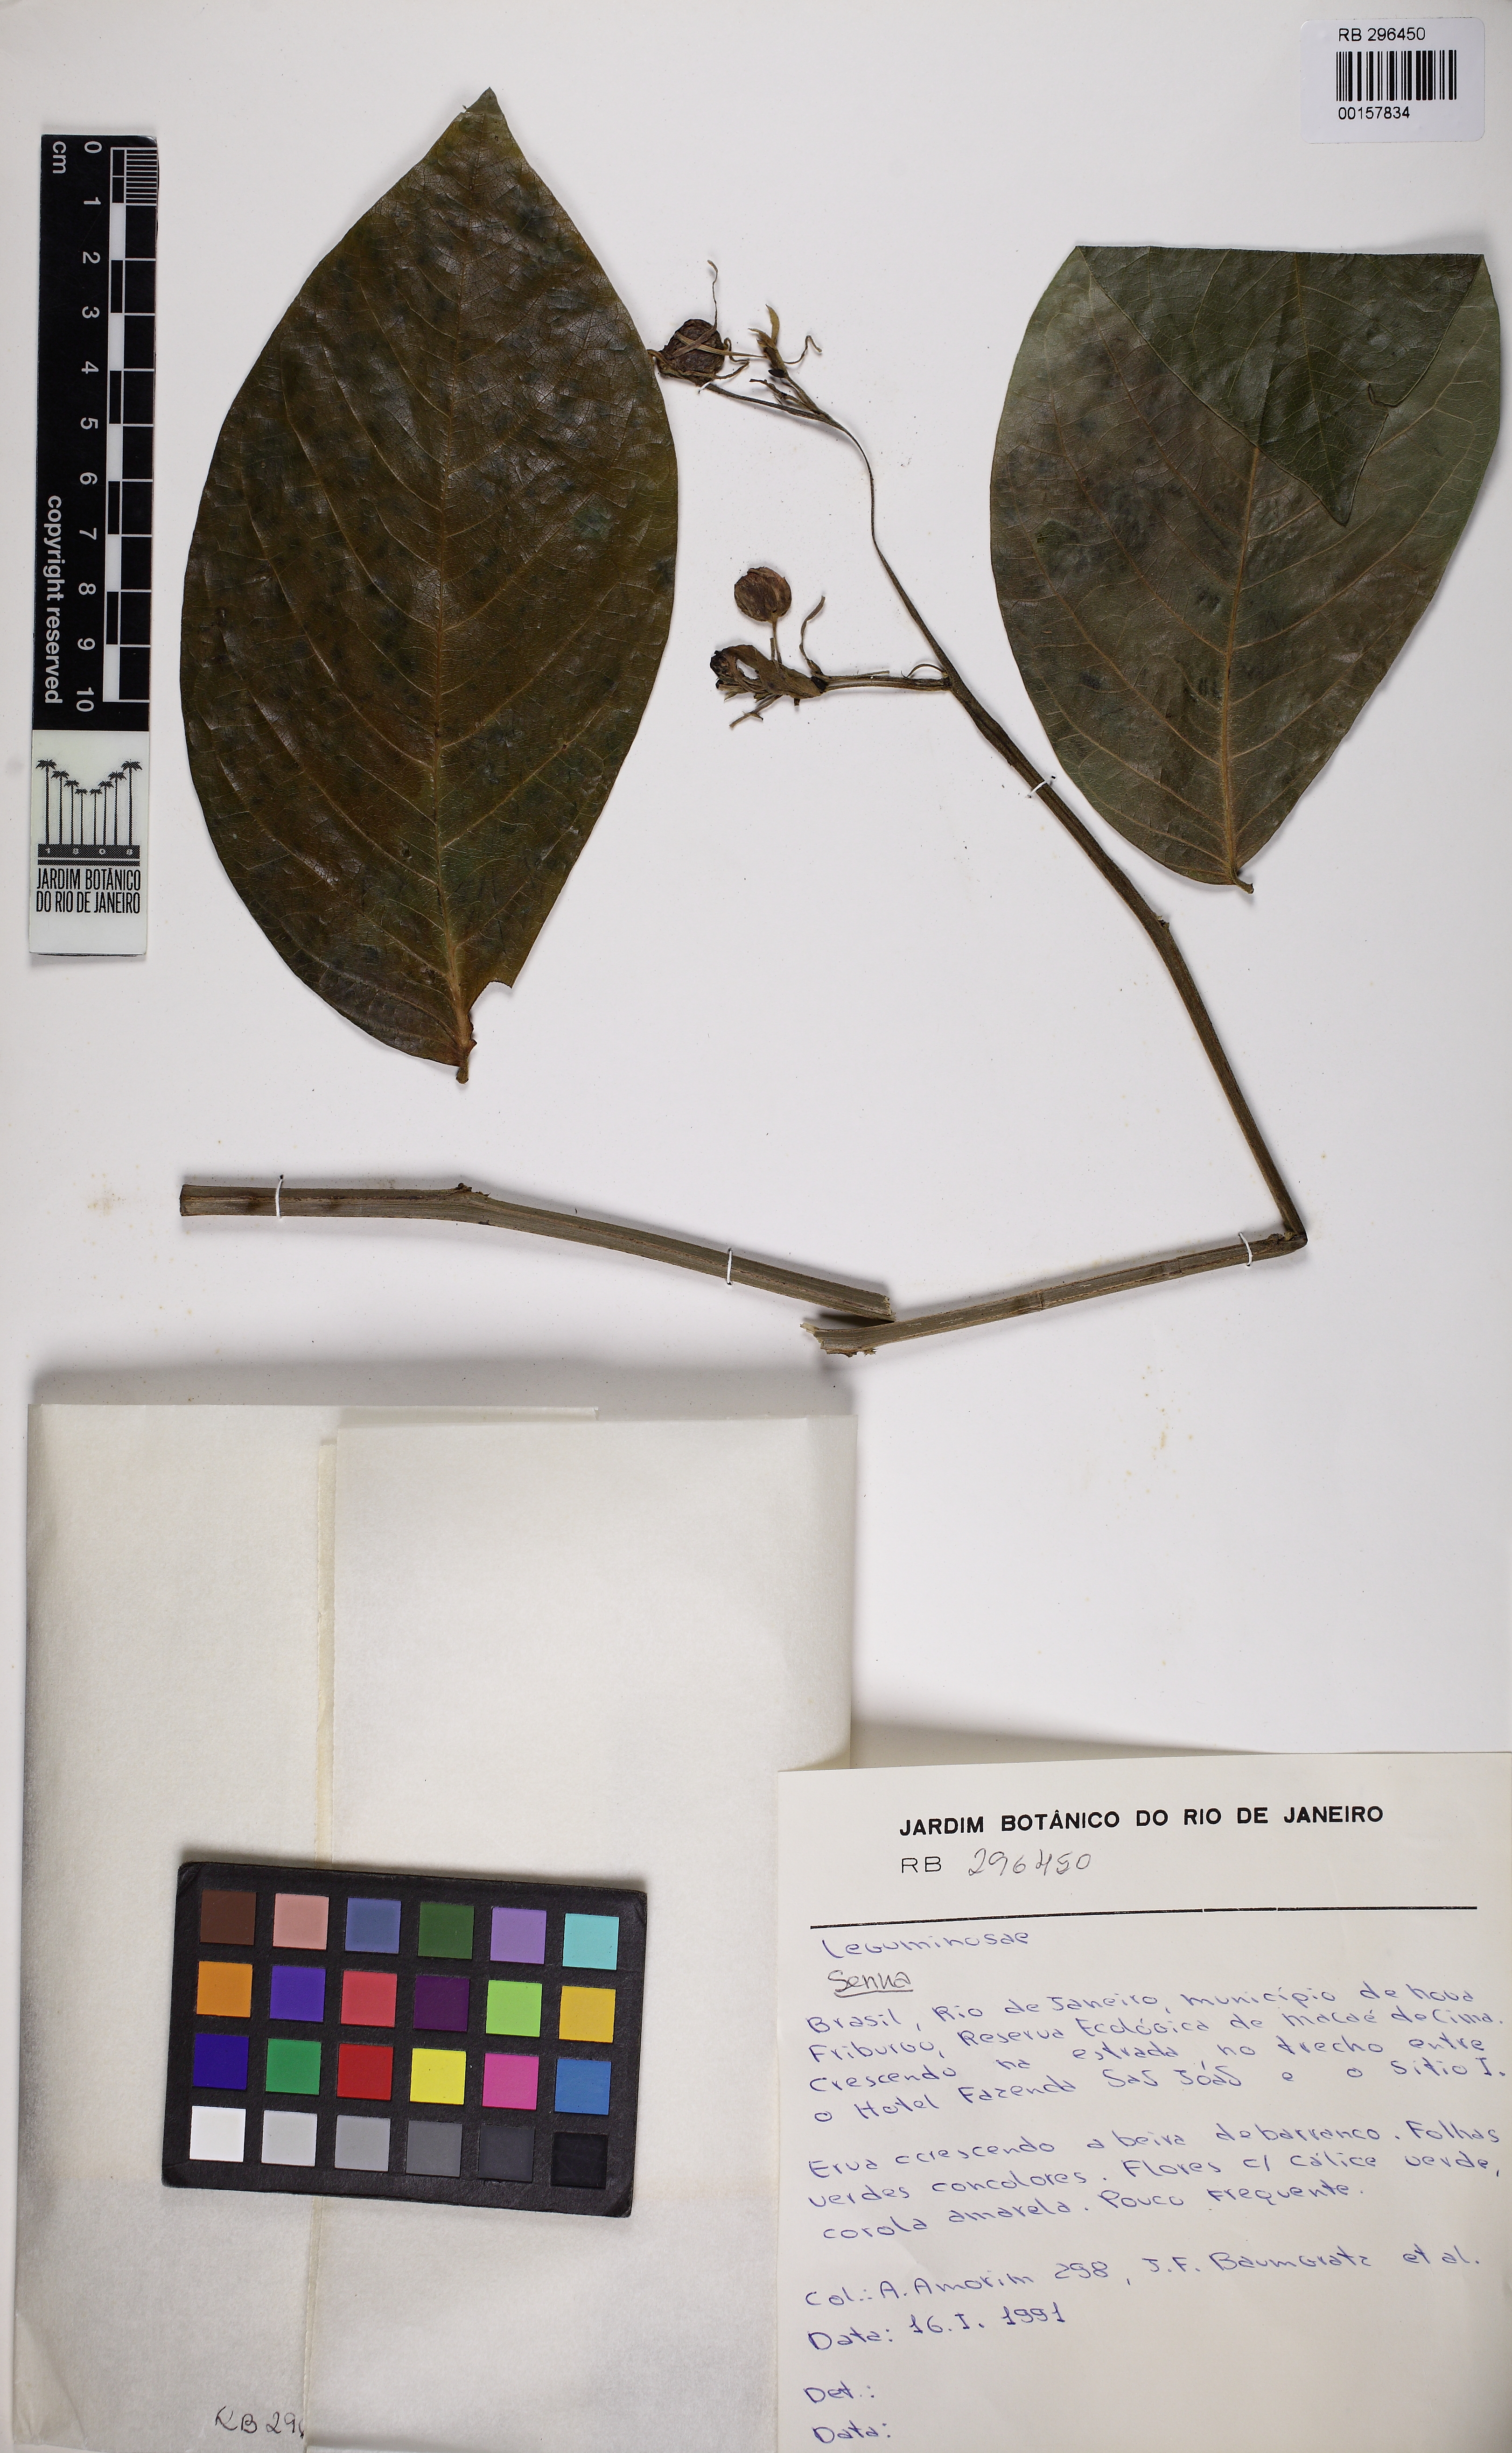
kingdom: Plantae
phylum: Tracheophyta
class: Magnoliopsida
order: Fabales
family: Fabaceae
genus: Senna
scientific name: Senna
